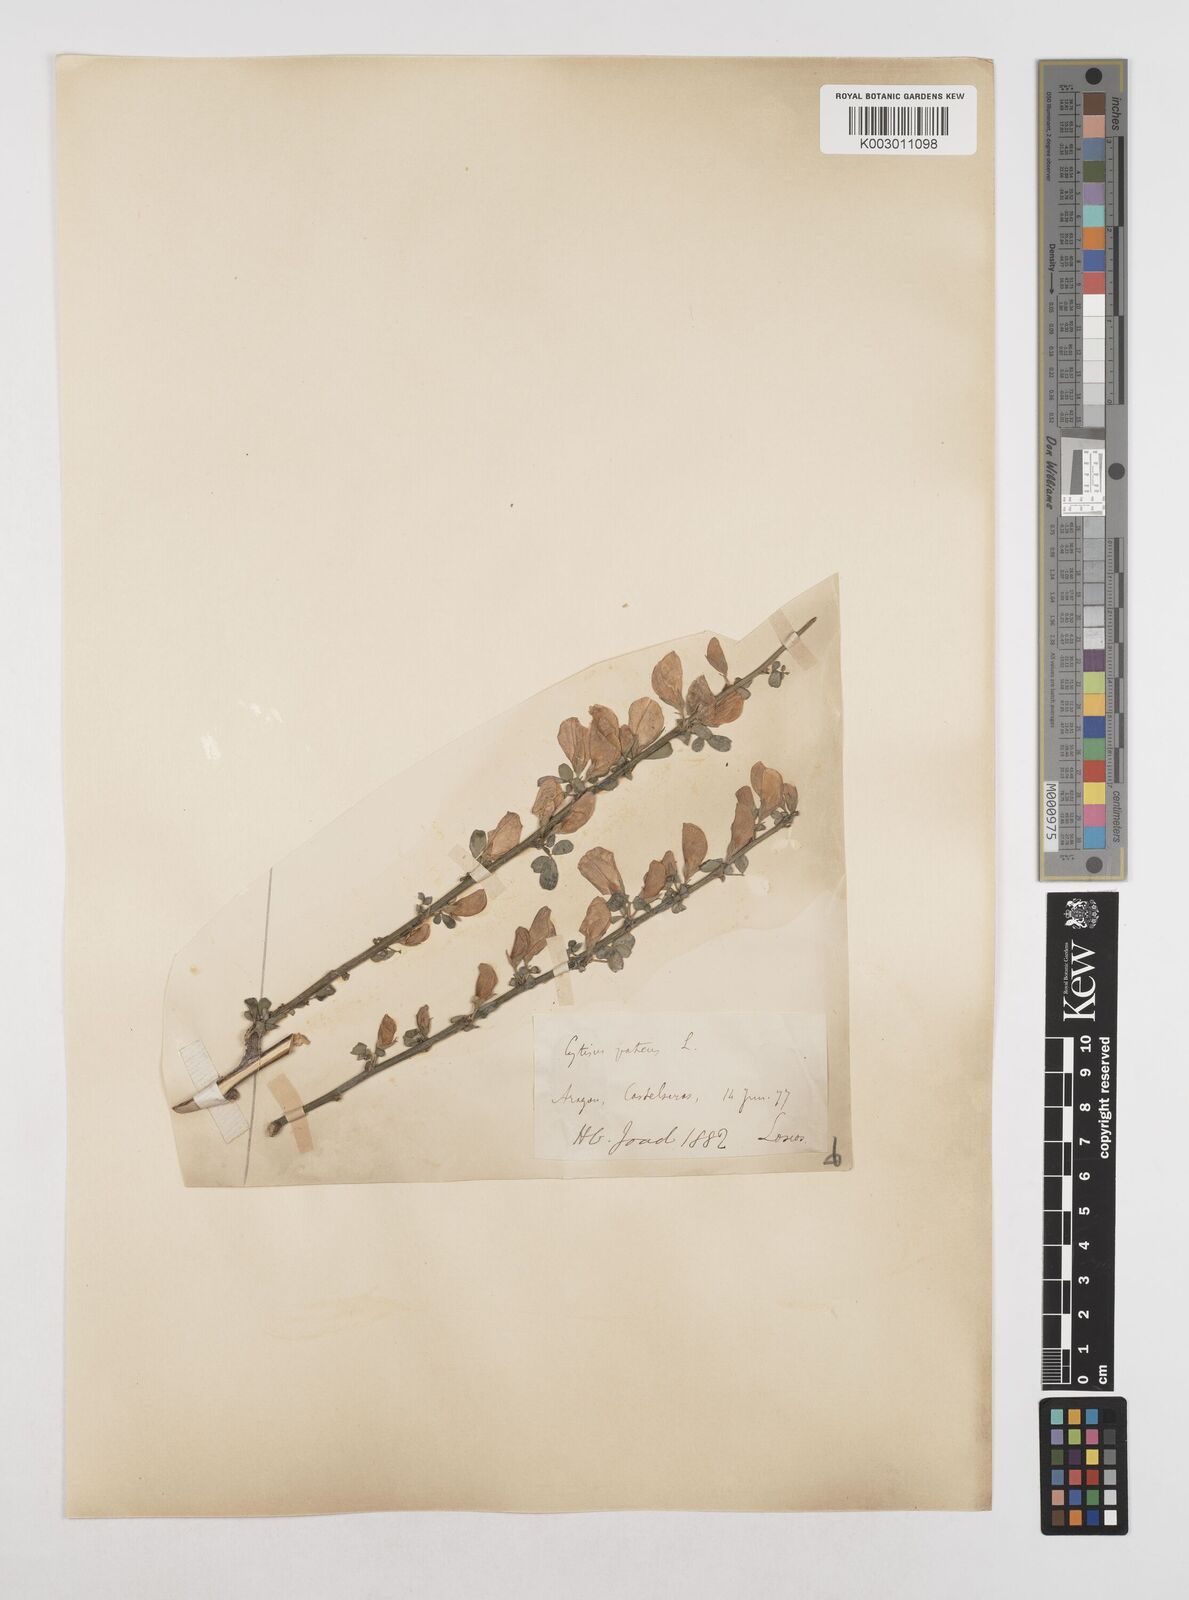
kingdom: Plantae
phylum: Tracheophyta
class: Magnoliopsida
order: Fabales
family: Fabaceae
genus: Cytisus
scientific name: Cytisus striatus
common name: Hairy-fruited broom
